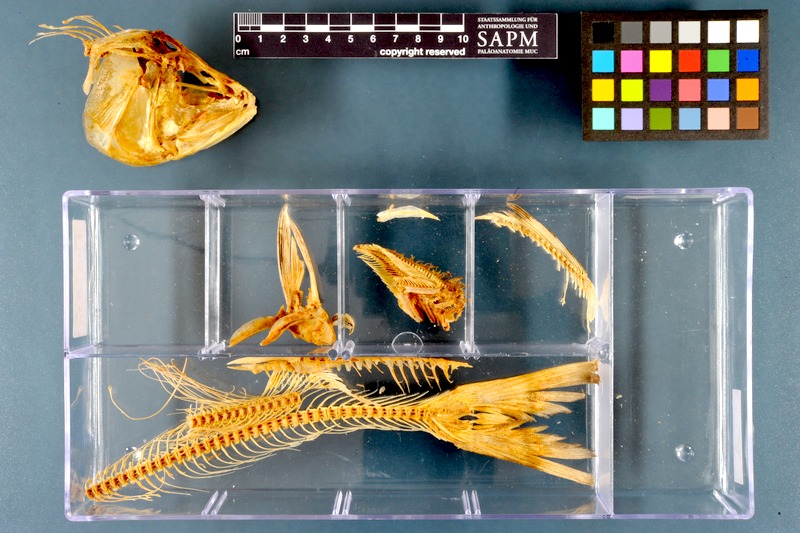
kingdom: Animalia
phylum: Chordata
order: Cypriniformes
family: Cyprinidae
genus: Rutilus
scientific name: Rutilus meidingeri
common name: Perlfisch
